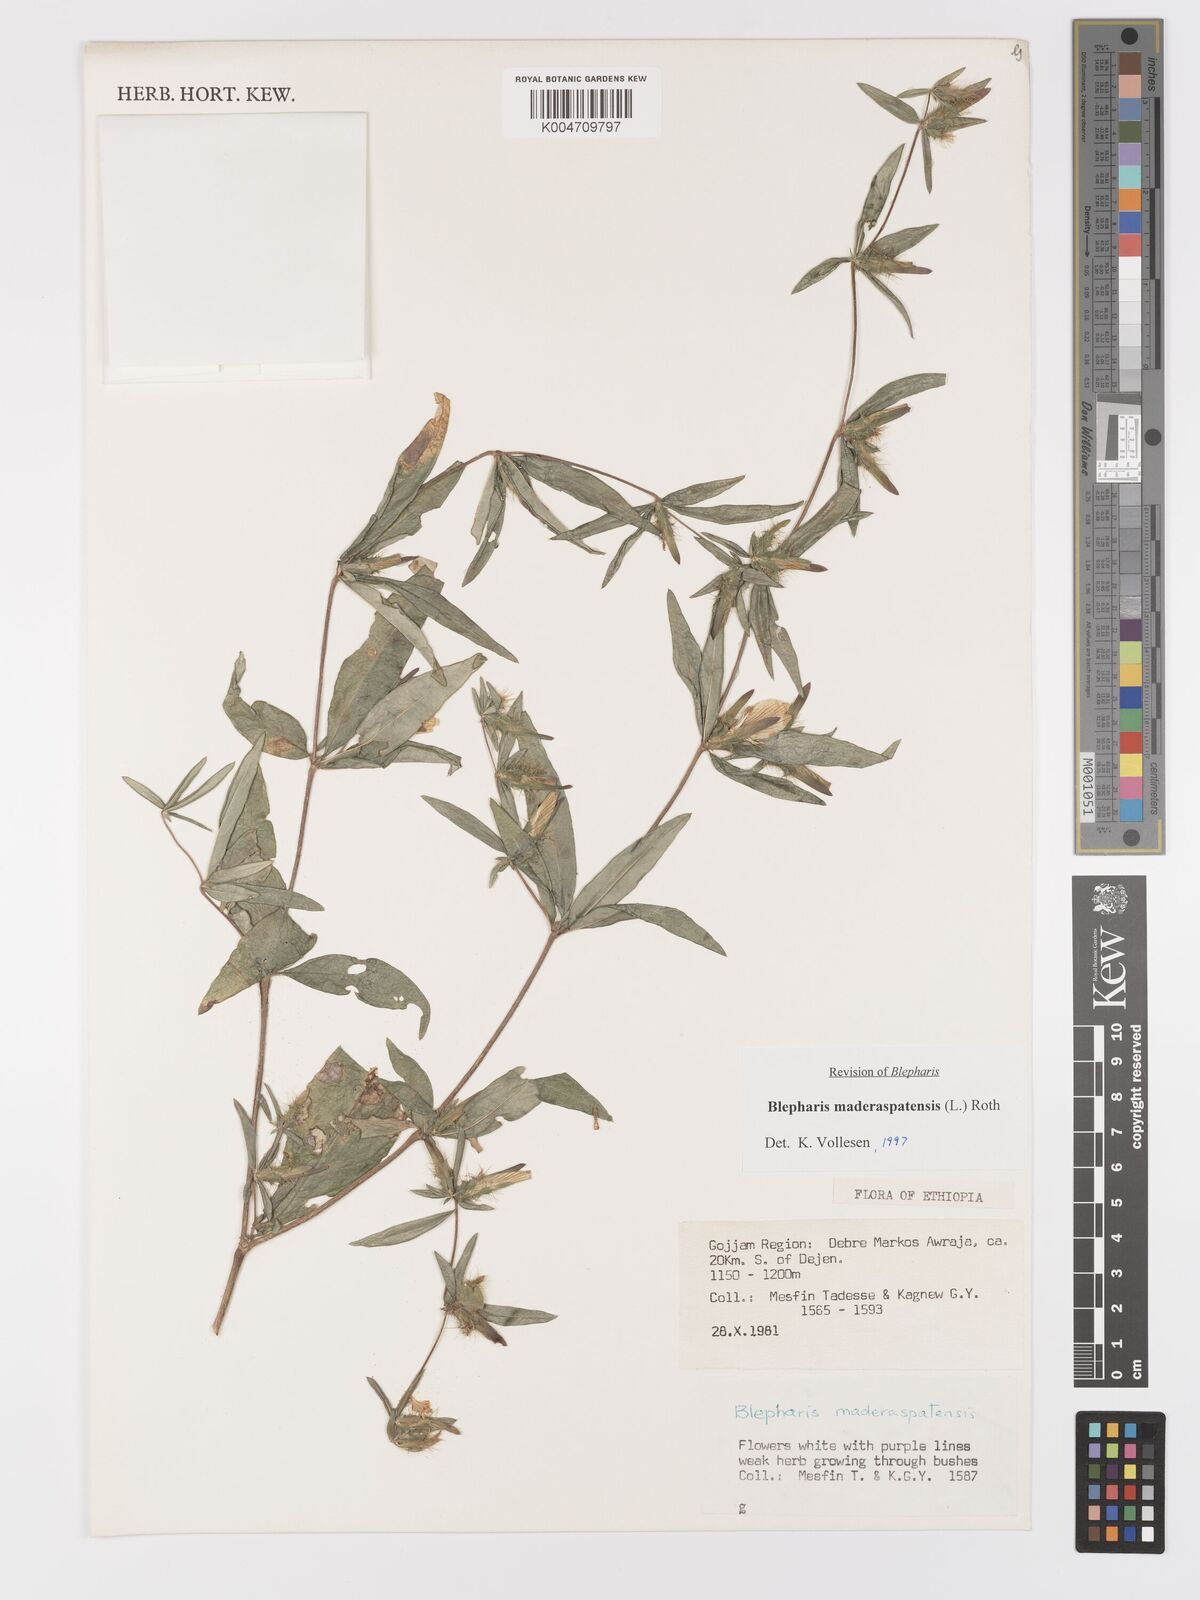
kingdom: Plantae
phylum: Tracheophyta
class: Magnoliopsida
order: Lamiales
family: Acanthaceae
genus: Blepharis
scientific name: Blepharis maderaspatensis
